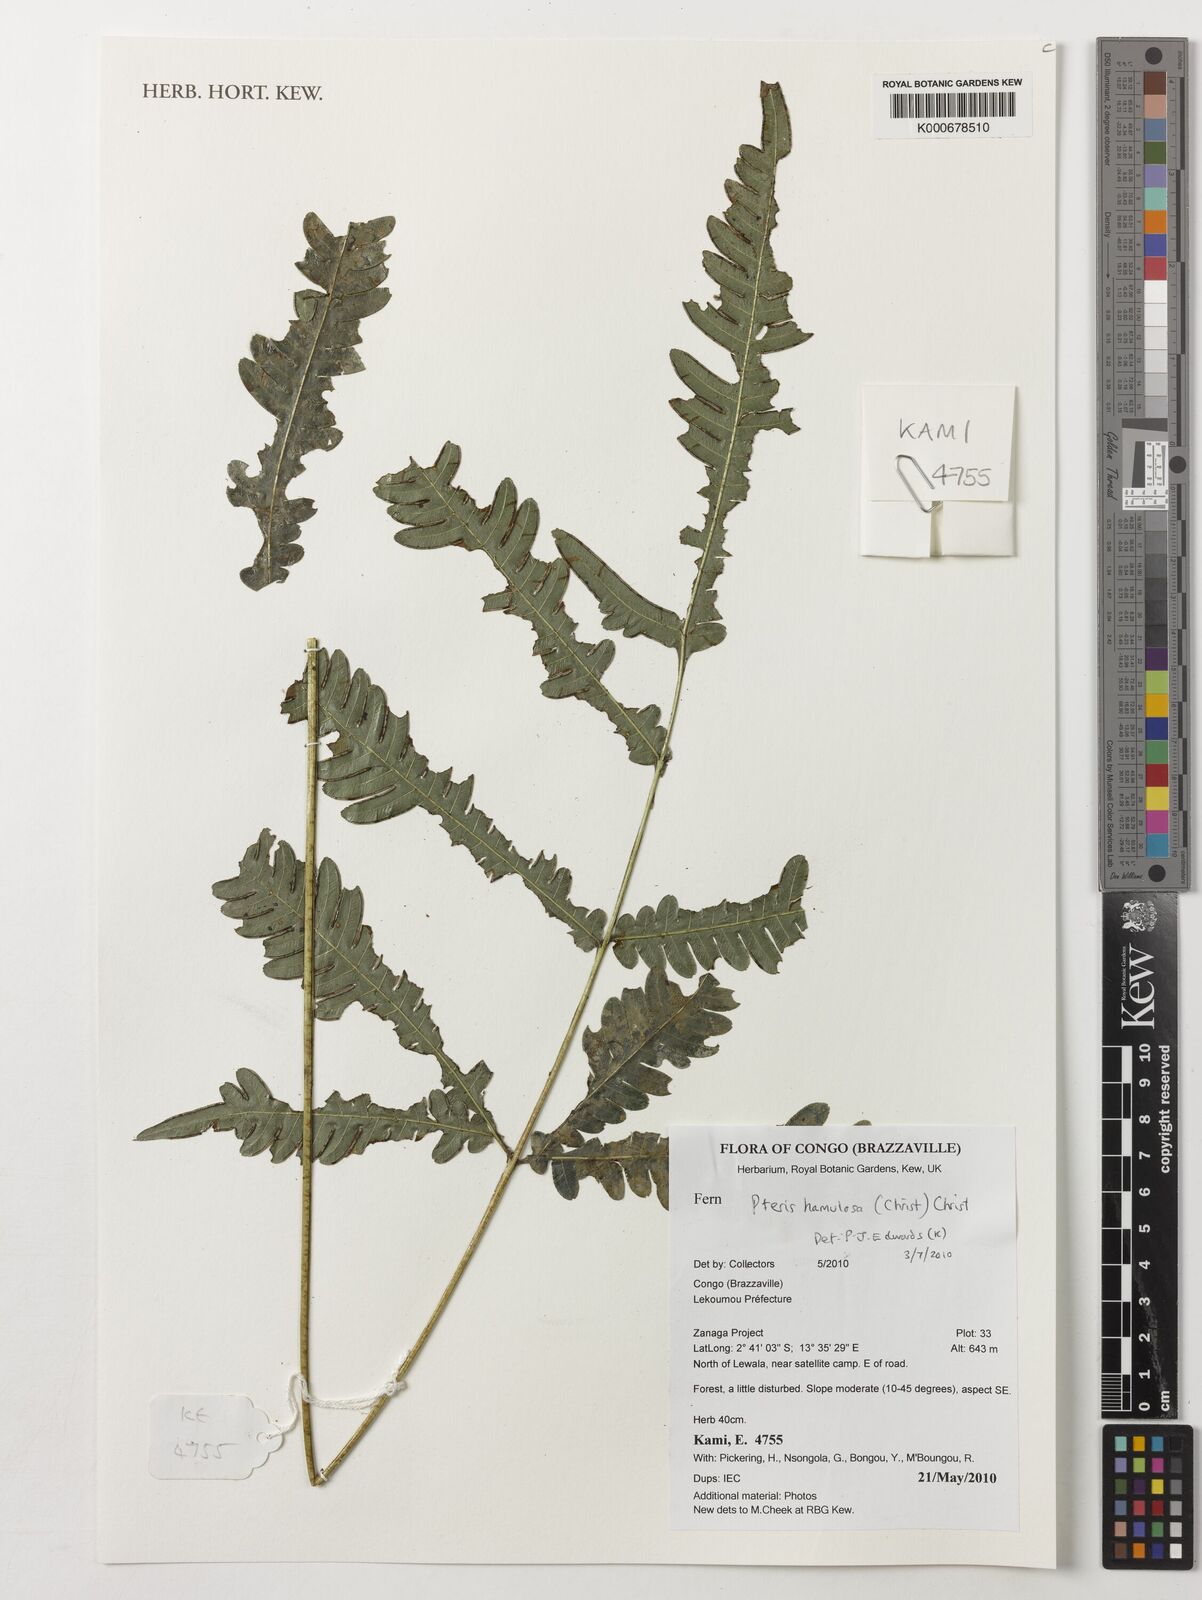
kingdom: Plantae
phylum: Tracheophyta
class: Polypodiopsida
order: Polypodiales
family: Pteridaceae
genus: Pteris
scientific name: Pteris hamulosa
